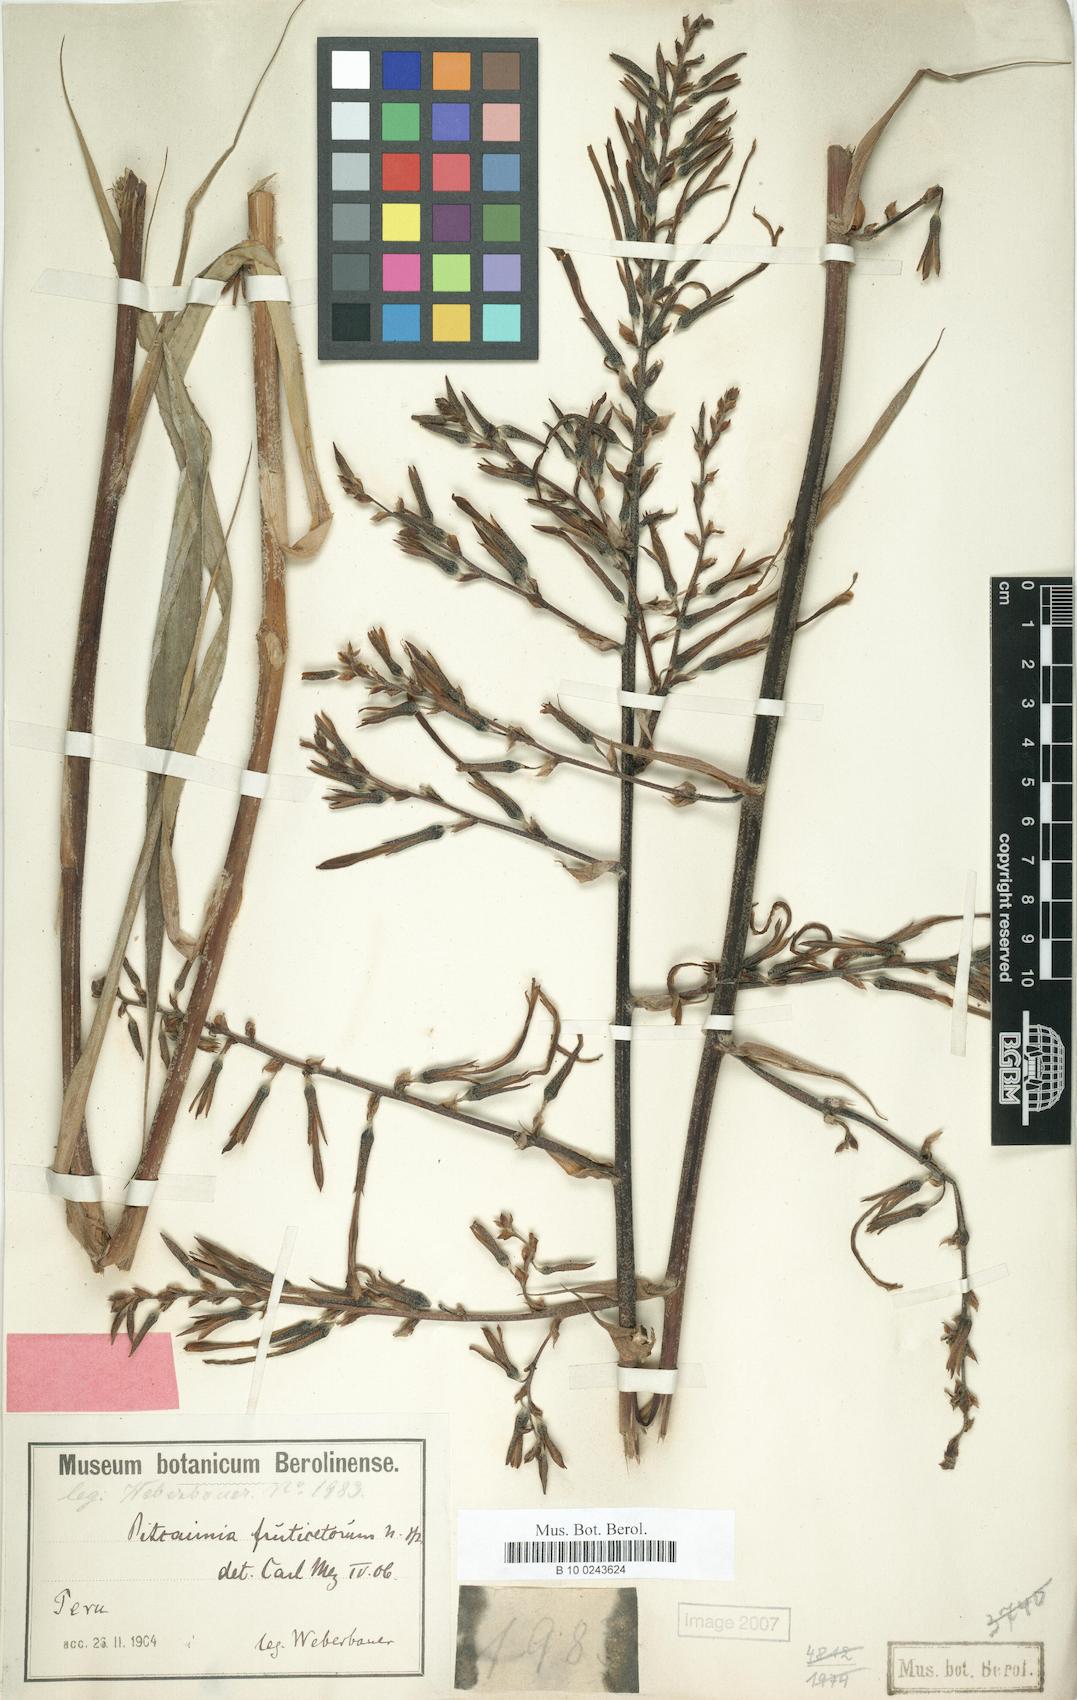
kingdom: Plantae
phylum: Tracheophyta
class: Liliopsida
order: Poales
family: Bromeliaceae
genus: Pitcairnia
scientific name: Pitcairnia paniculata
